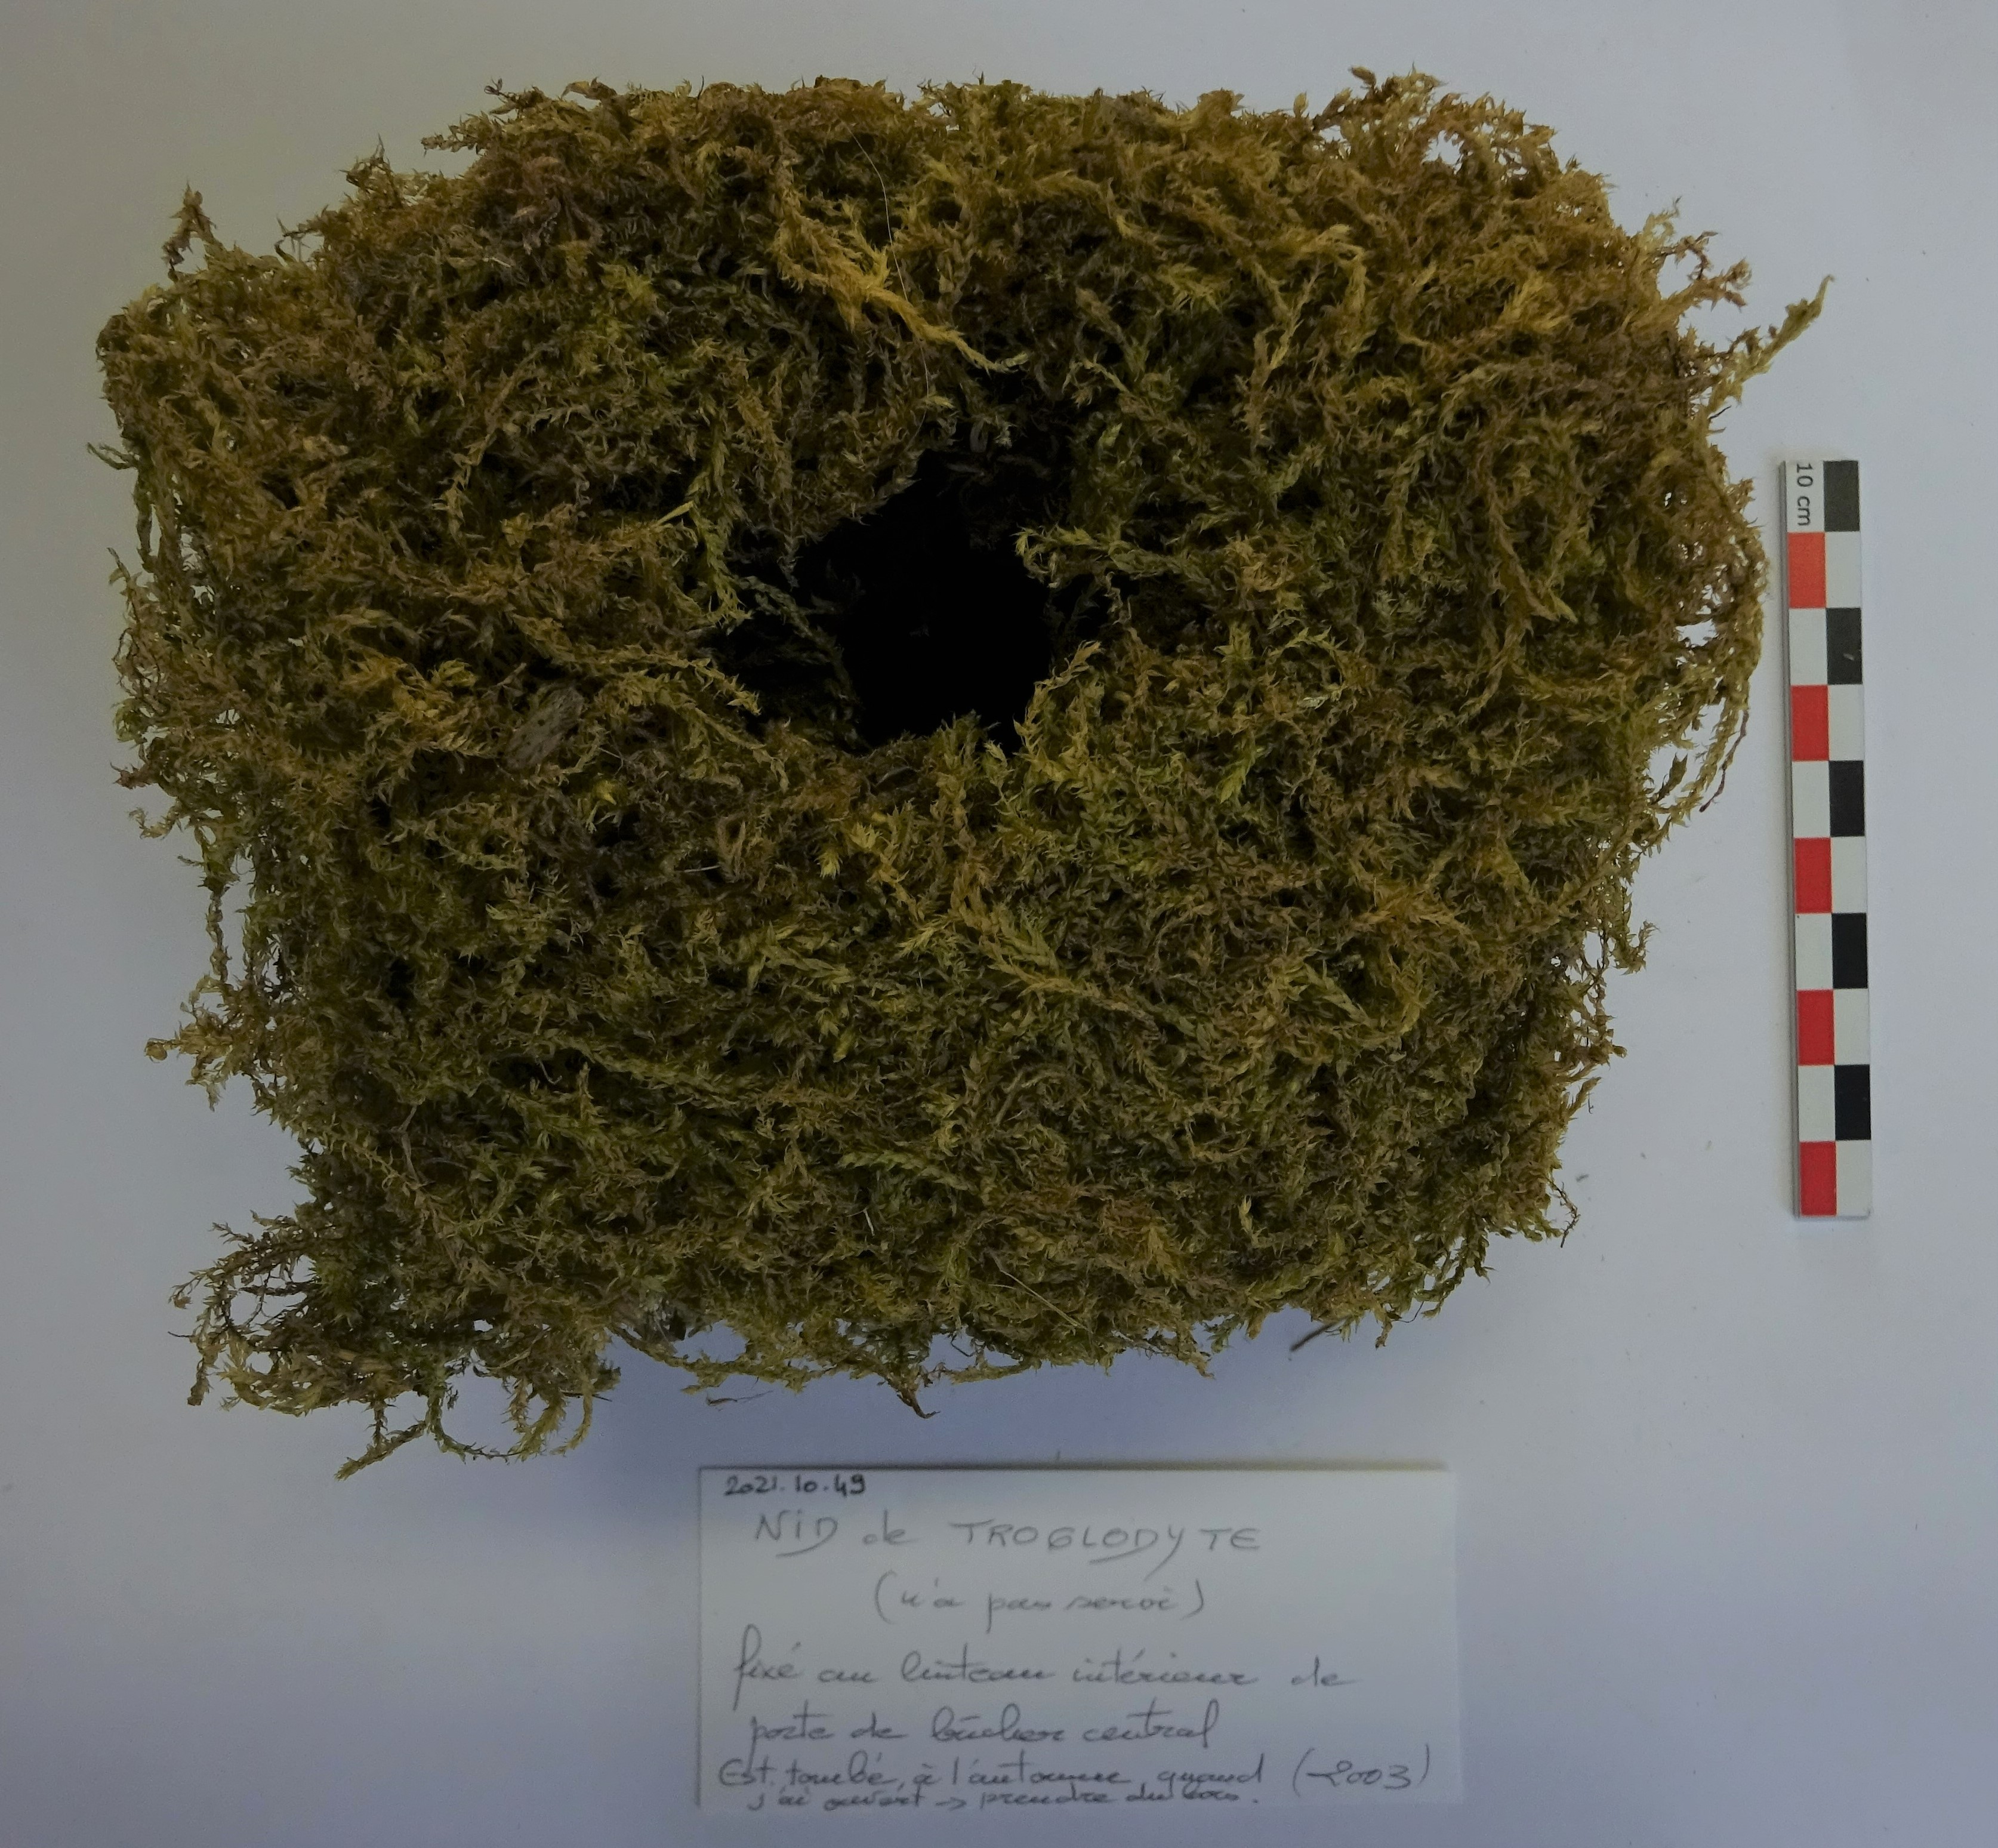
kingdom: Animalia
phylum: Chordata
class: Aves
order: Passeriformes
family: Troglodytidae
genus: Troglodytes
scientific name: Troglodytes troglodytes
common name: Eurasian wren
